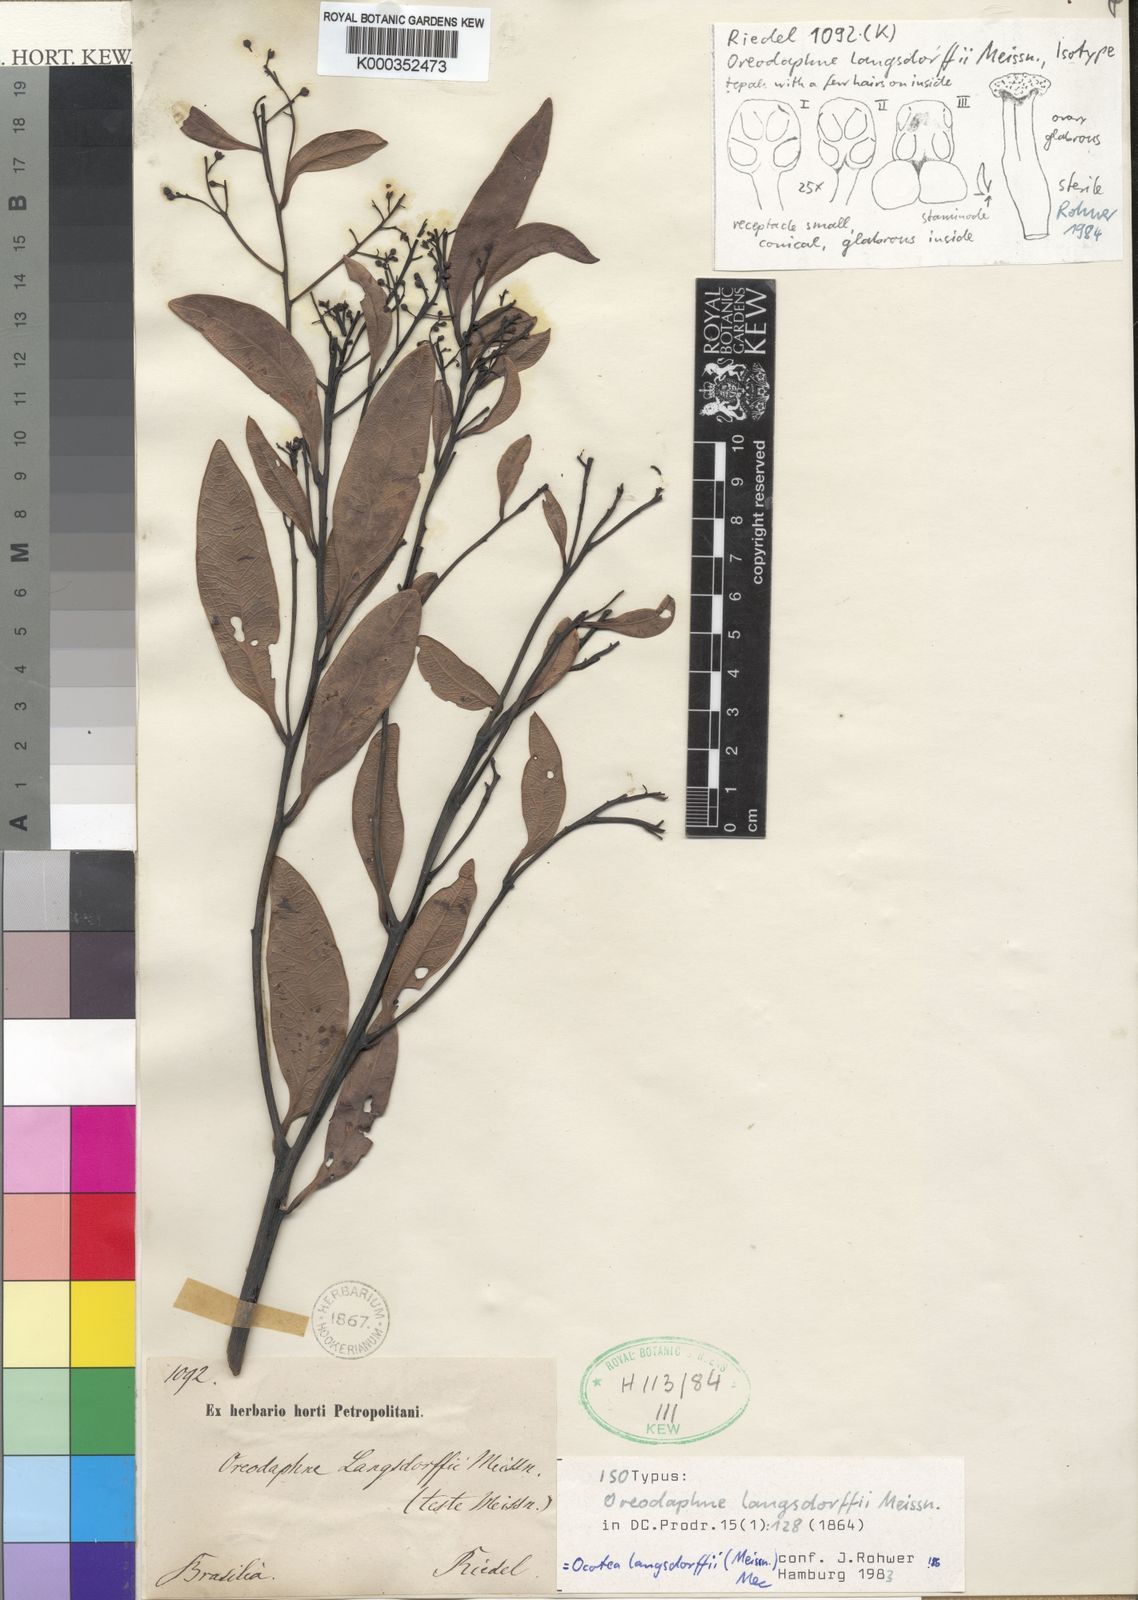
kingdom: Plantae
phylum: Tracheophyta
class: Magnoliopsida
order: Laurales
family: Lauraceae
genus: Ocotea
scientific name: Ocotea langsdorffii
